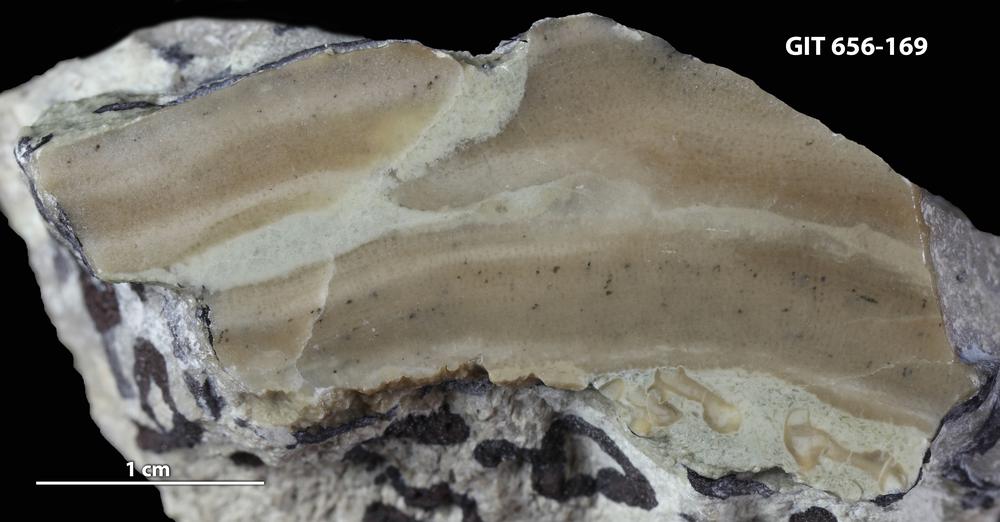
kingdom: Animalia
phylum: Porifera
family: Syringostromellidae
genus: Syringostromella
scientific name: Syringostromella
